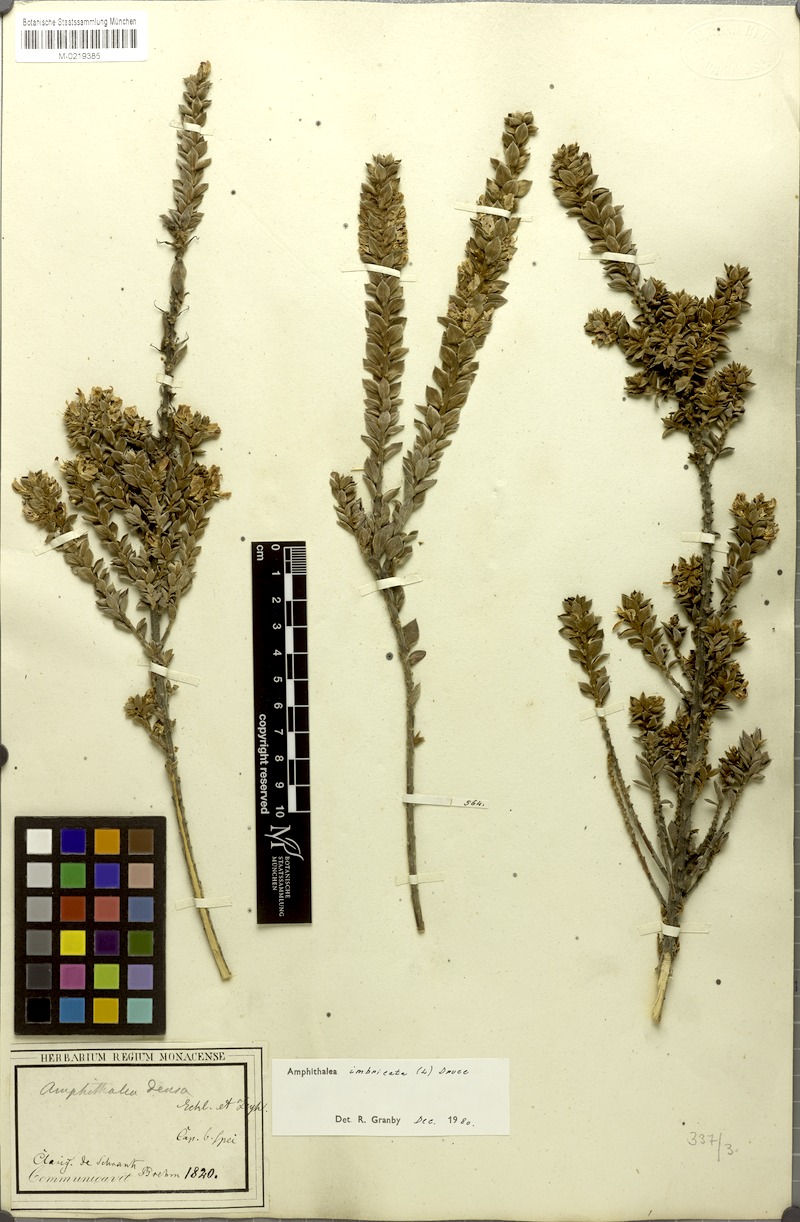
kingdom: Plantae
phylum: Tracheophyta
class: Magnoliopsida
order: Fabales
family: Fabaceae
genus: Amphithalea
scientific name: Amphithalea imbricata
